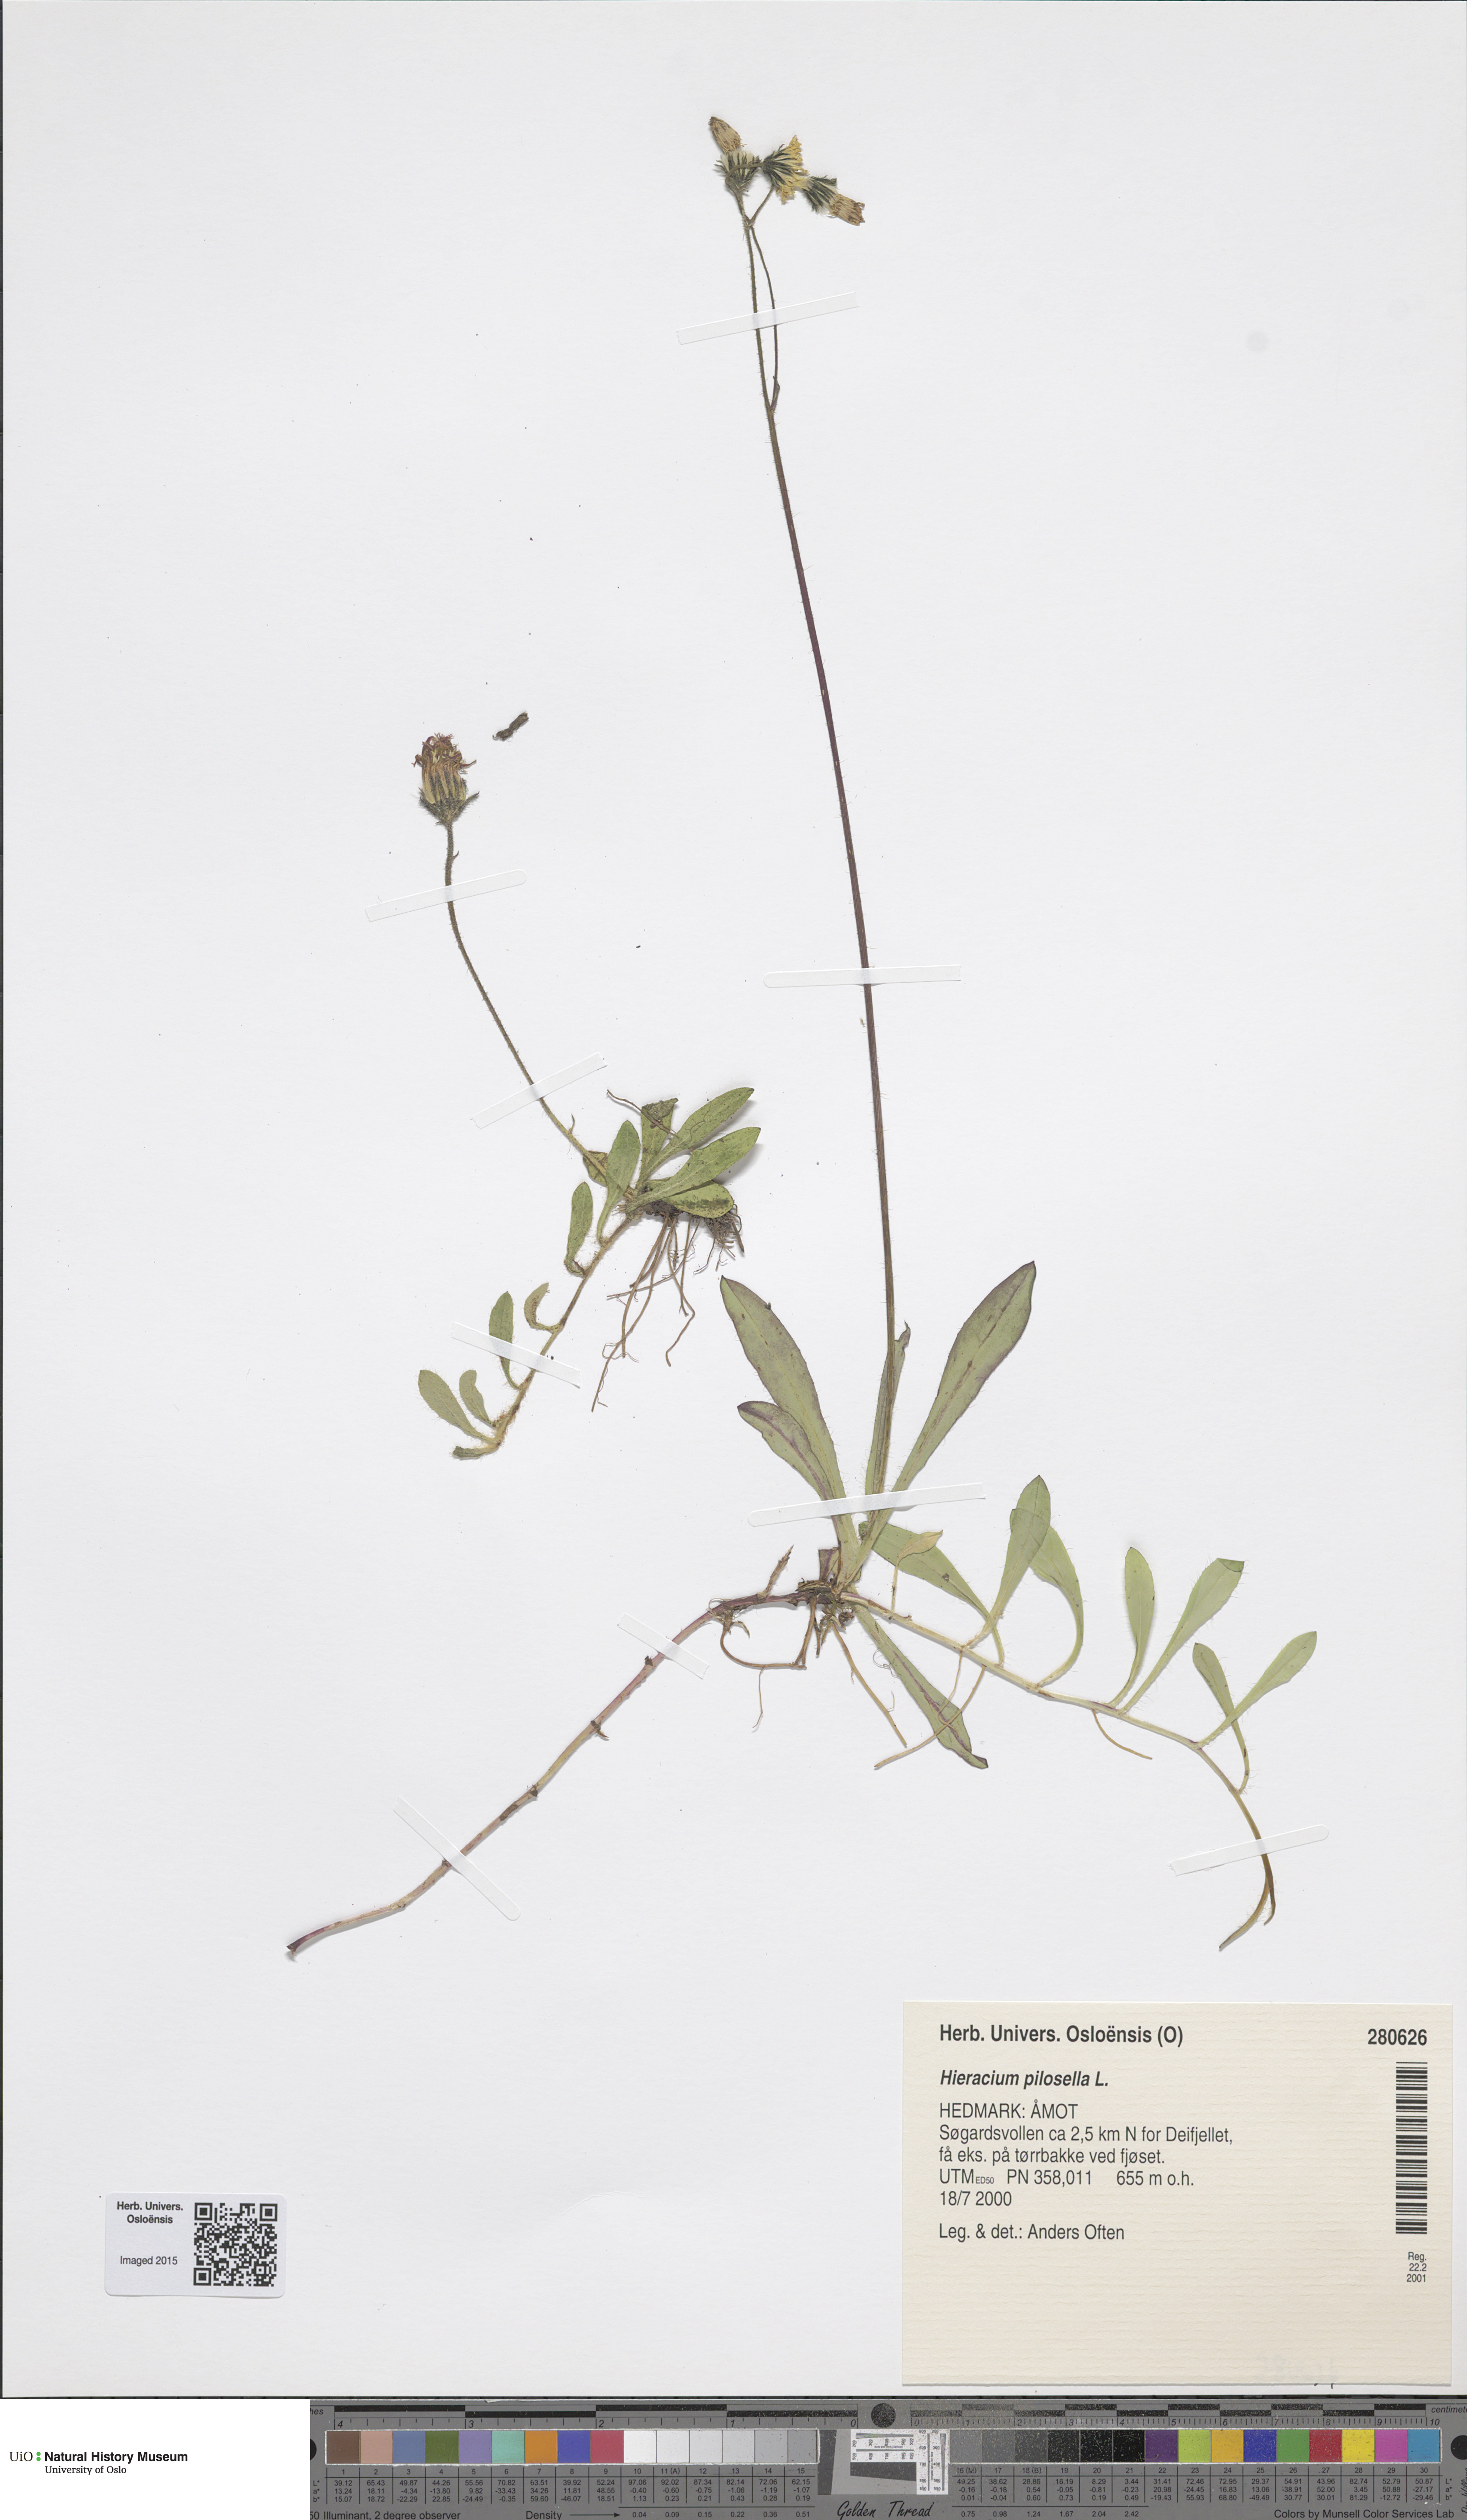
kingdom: Plantae
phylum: Tracheophyta
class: Magnoliopsida
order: Asterales
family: Asteraceae
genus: Pilosella
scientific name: Pilosella officinarum
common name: Mouse-ear hawkweed
